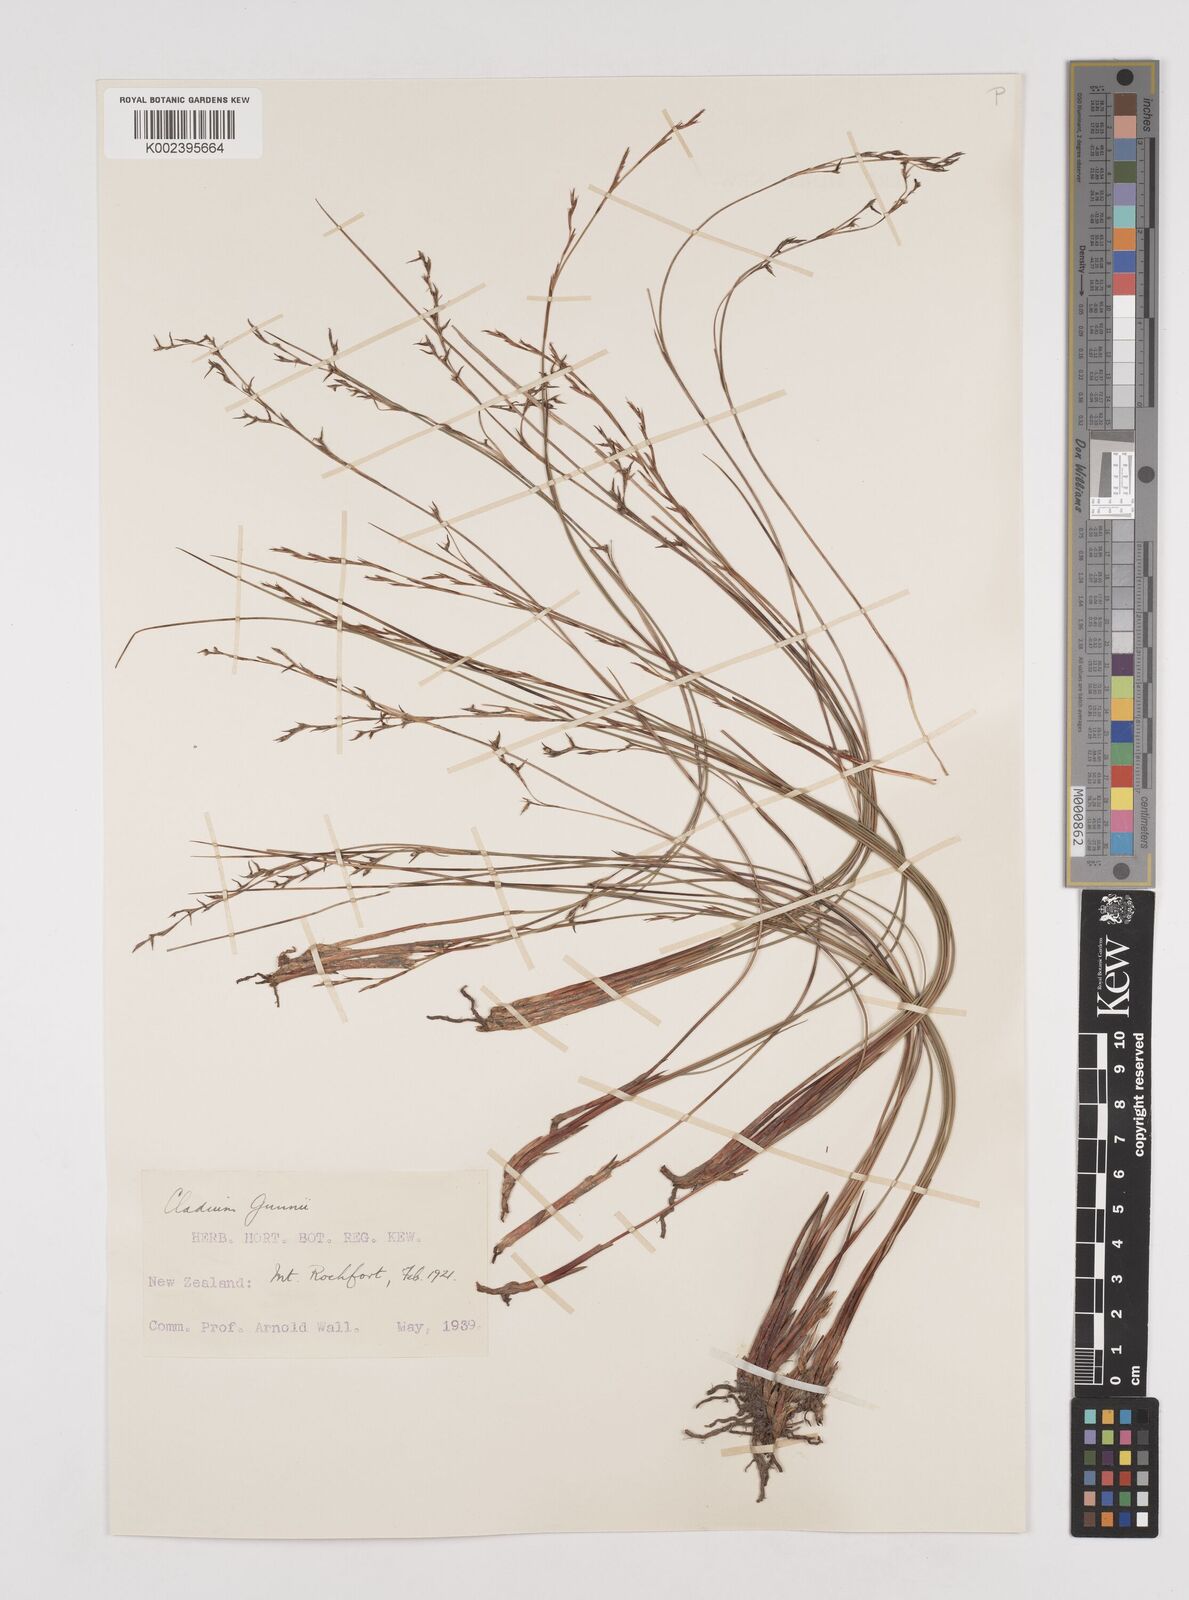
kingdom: Plantae
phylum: Tracheophyta
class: Liliopsida
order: Poales
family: Cyperaceae
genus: Machaerina
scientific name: Machaerina gunnii
